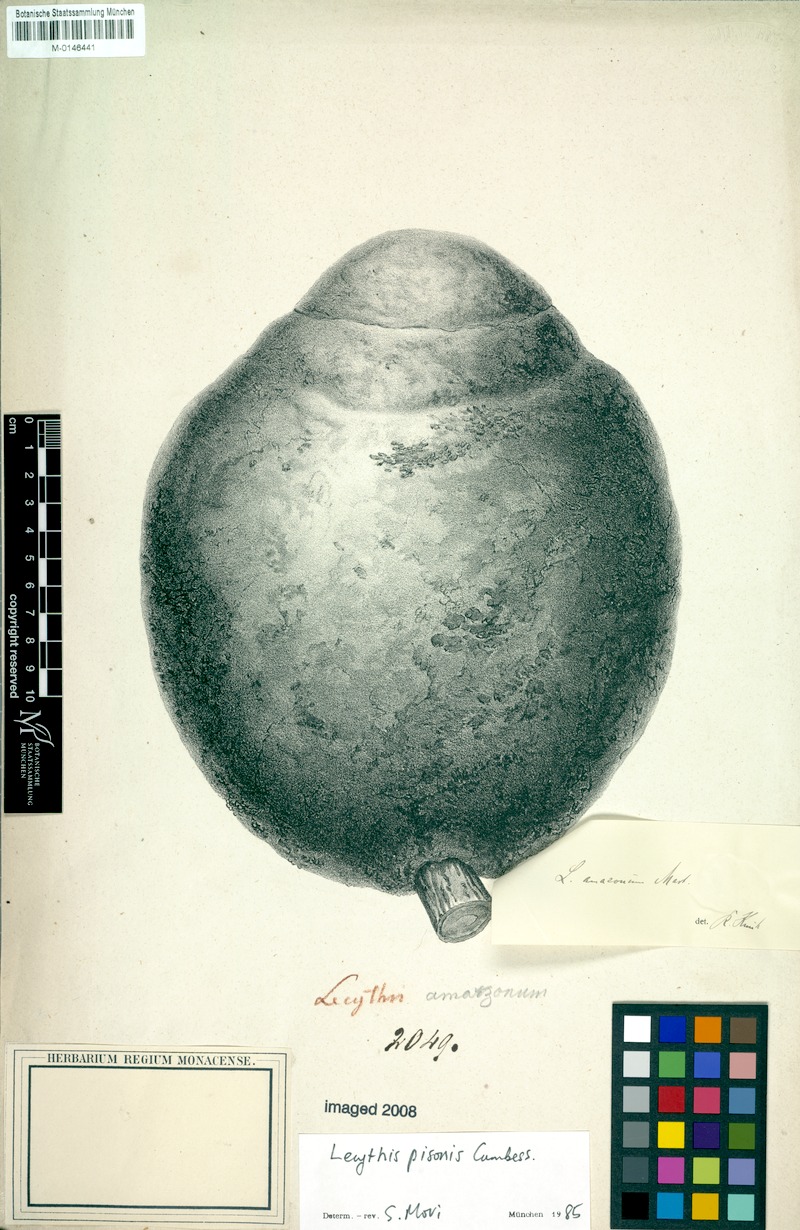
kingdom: Plantae
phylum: Tracheophyta
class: Magnoliopsida
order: Ericales
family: Lecythidaceae
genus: Lecythis
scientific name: Lecythis pisonis
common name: Paradise-nut
